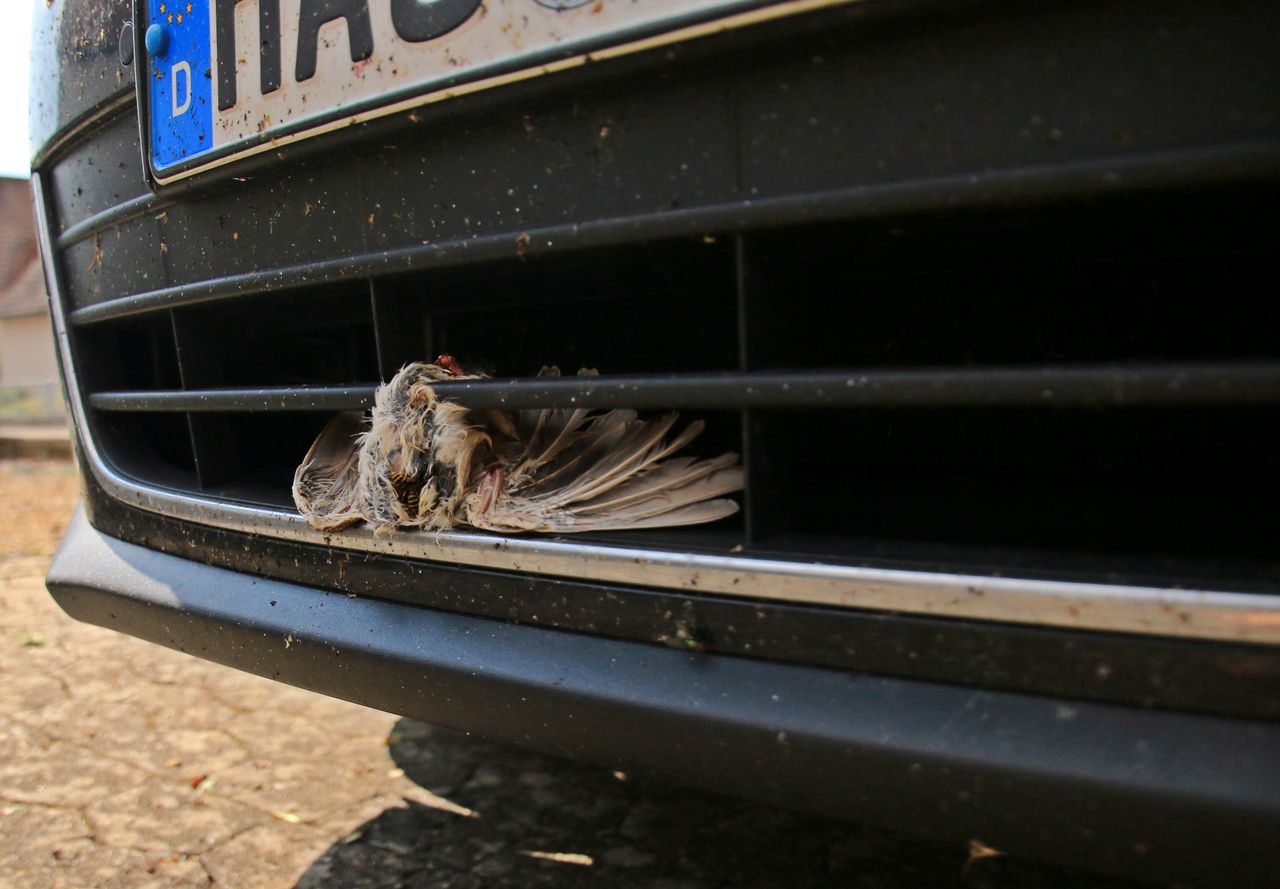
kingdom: Animalia
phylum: Chordata
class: Aves
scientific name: Aves
